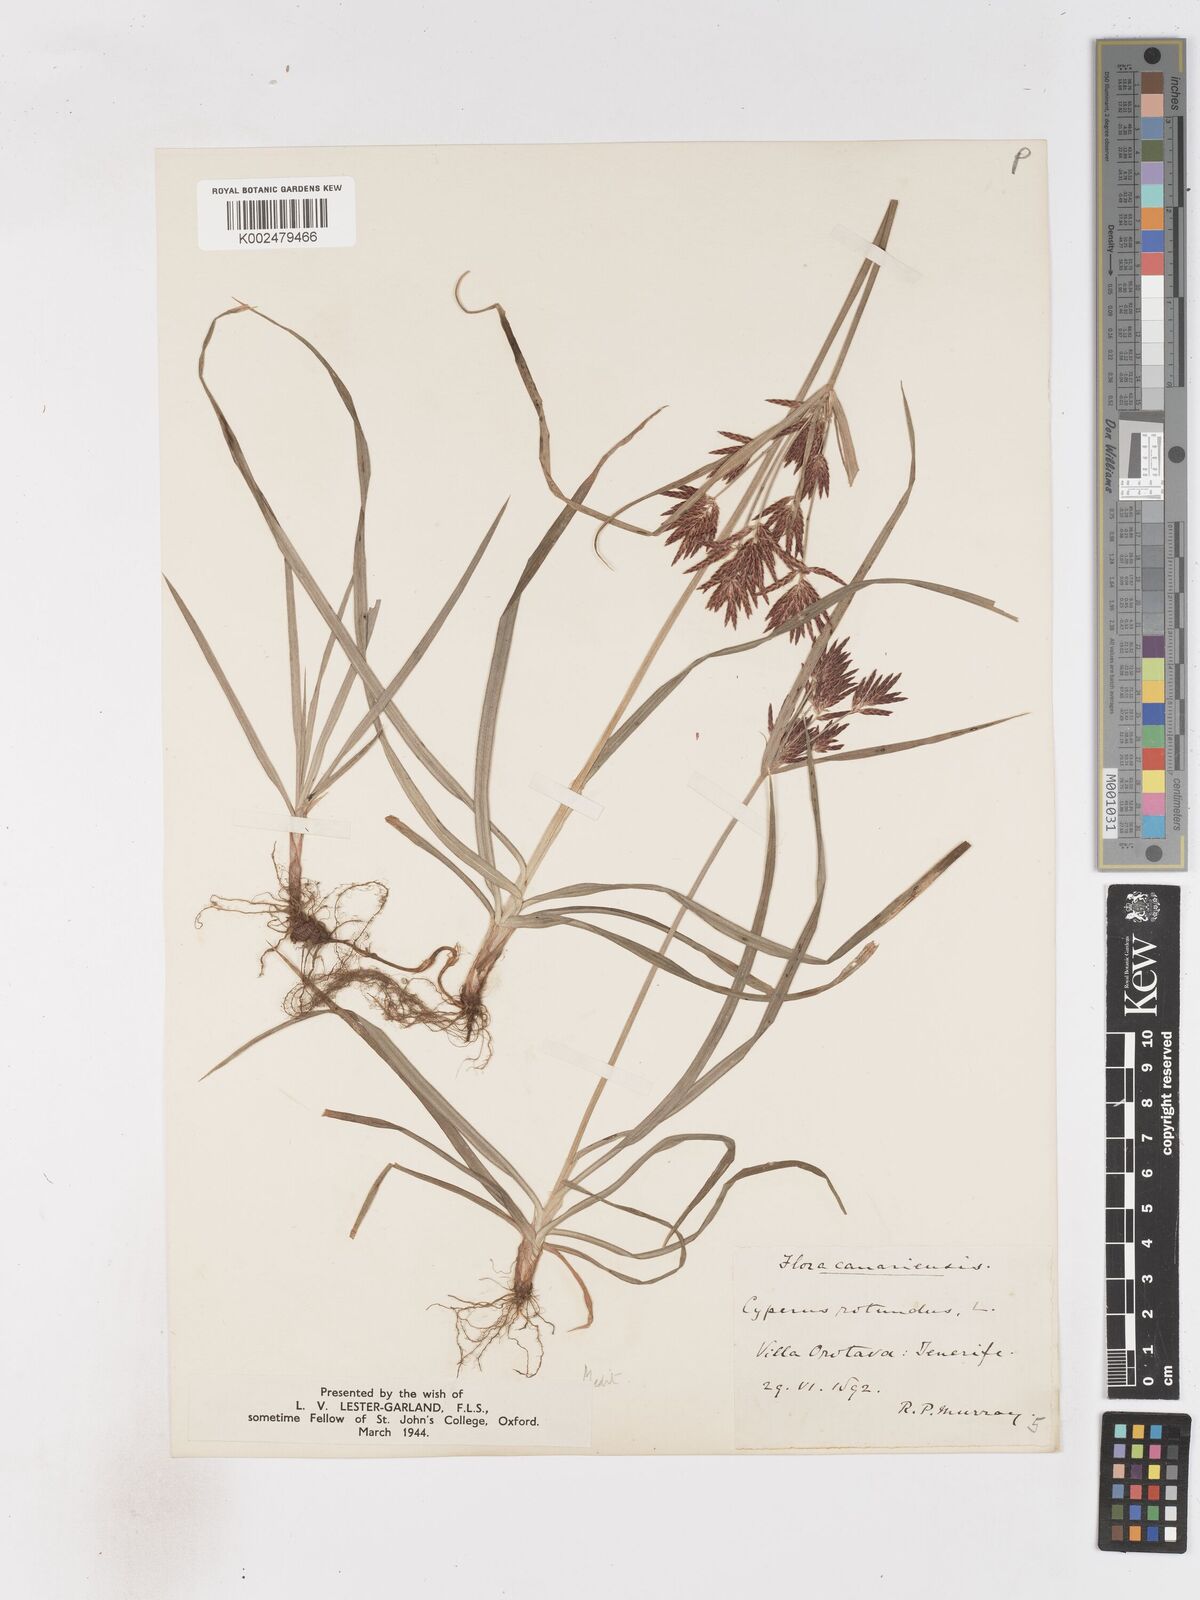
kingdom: Plantae
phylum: Tracheophyta
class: Liliopsida
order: Poales
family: Cyperaceae
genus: Cyperus
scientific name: Cyperus rotundus
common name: Nutgrass
